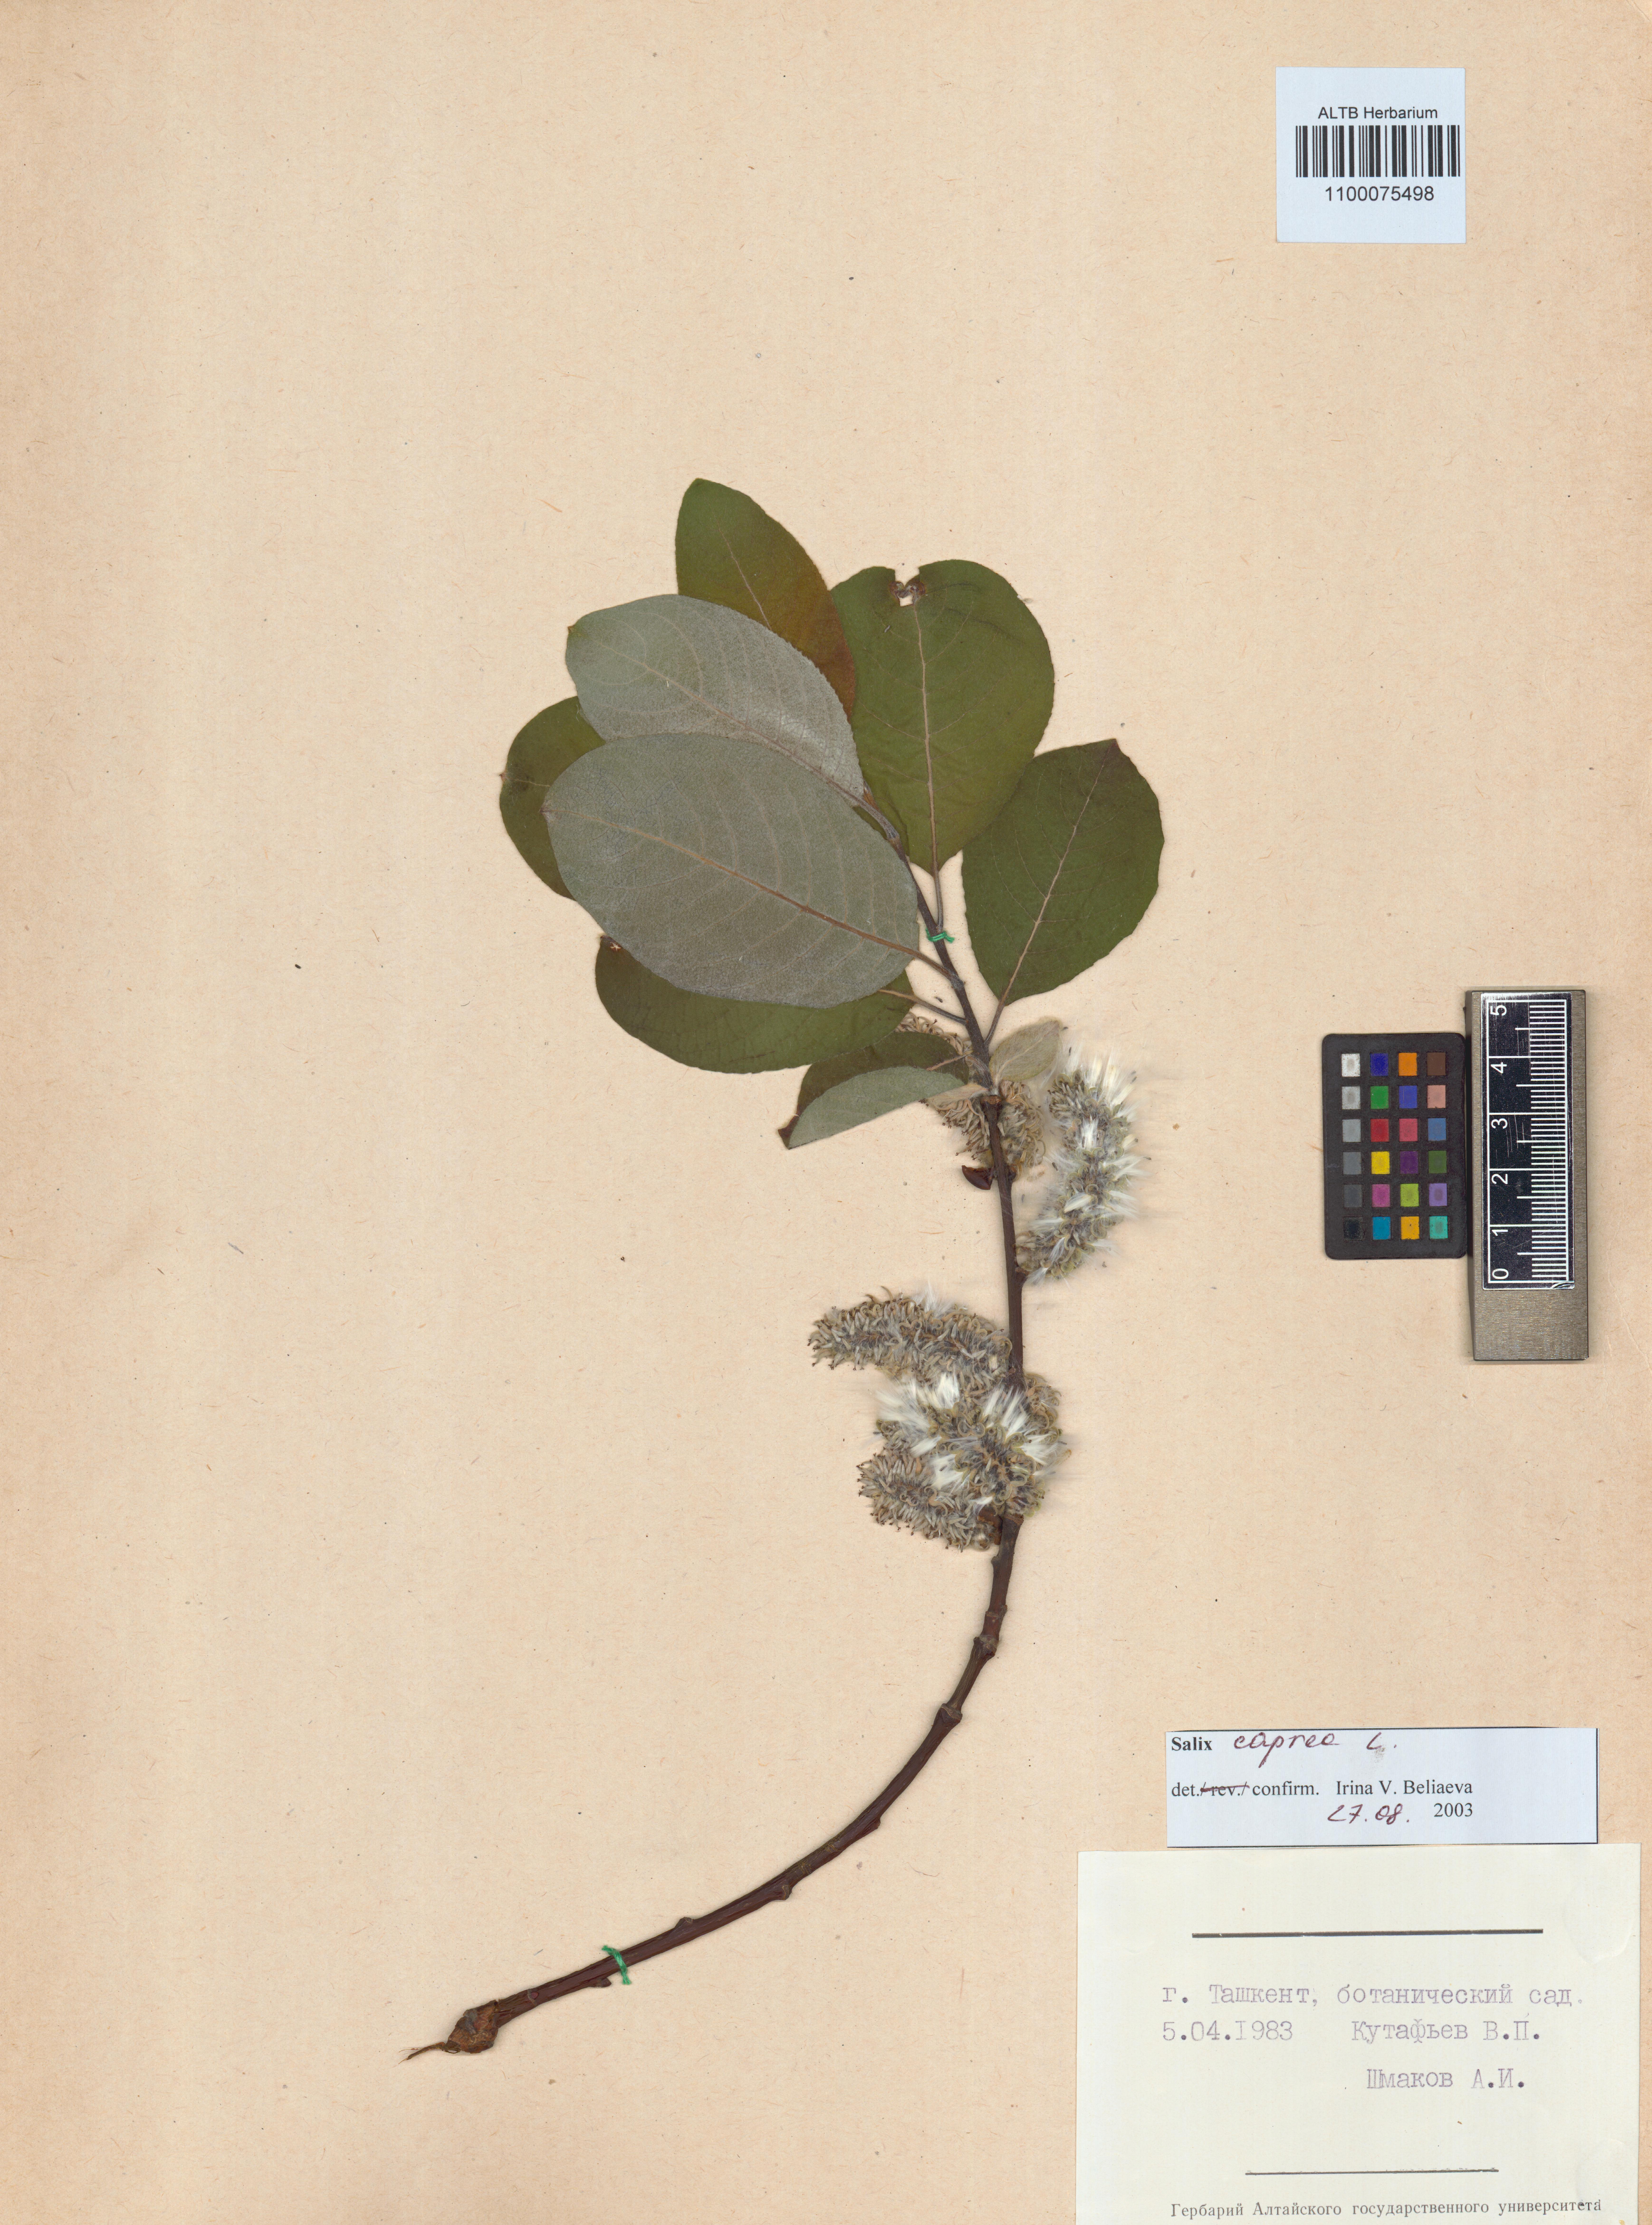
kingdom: Plantae
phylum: Tracheophyta
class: Magnoliopsida
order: Malpighiales
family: Salicaceae
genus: Salix
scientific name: Salix caprea
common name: Goat willow
